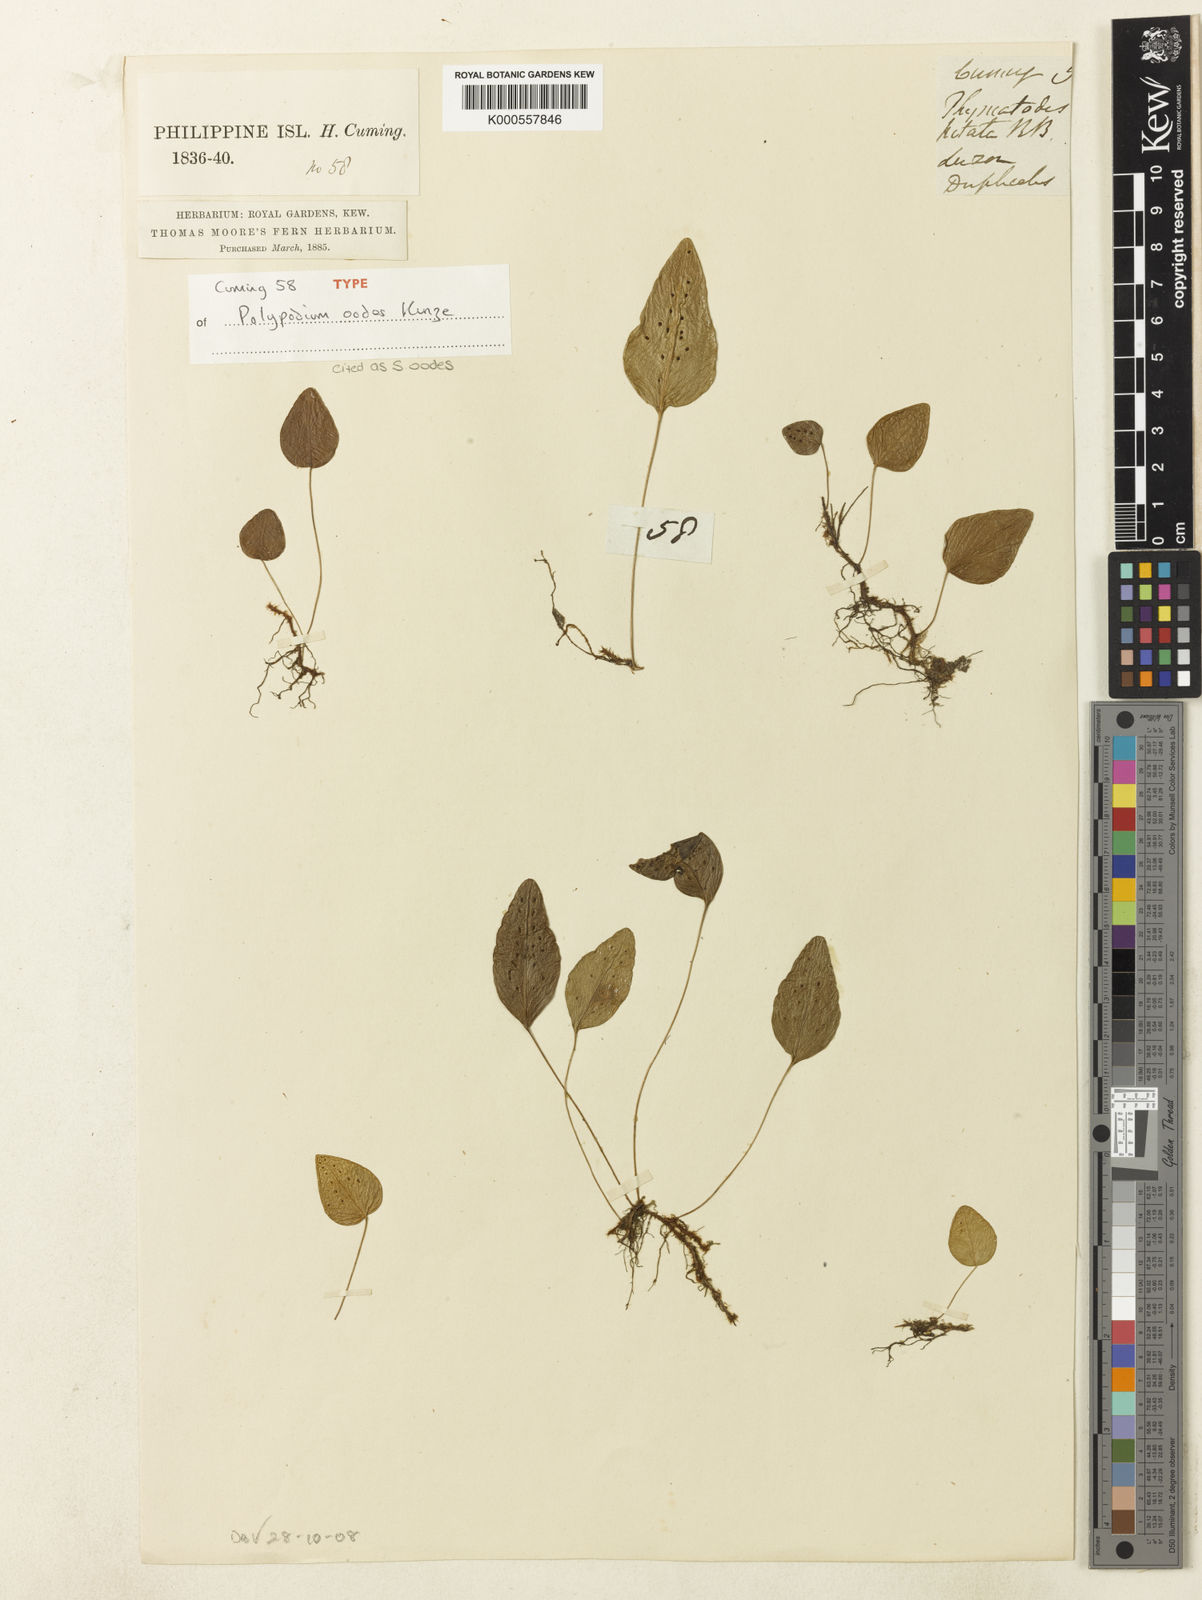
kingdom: Plantae
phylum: Tracheophyta
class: Polypodiopsida
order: Polypodiales
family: Polypodiaceae
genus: Selliguea
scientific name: Selliguea oodes
